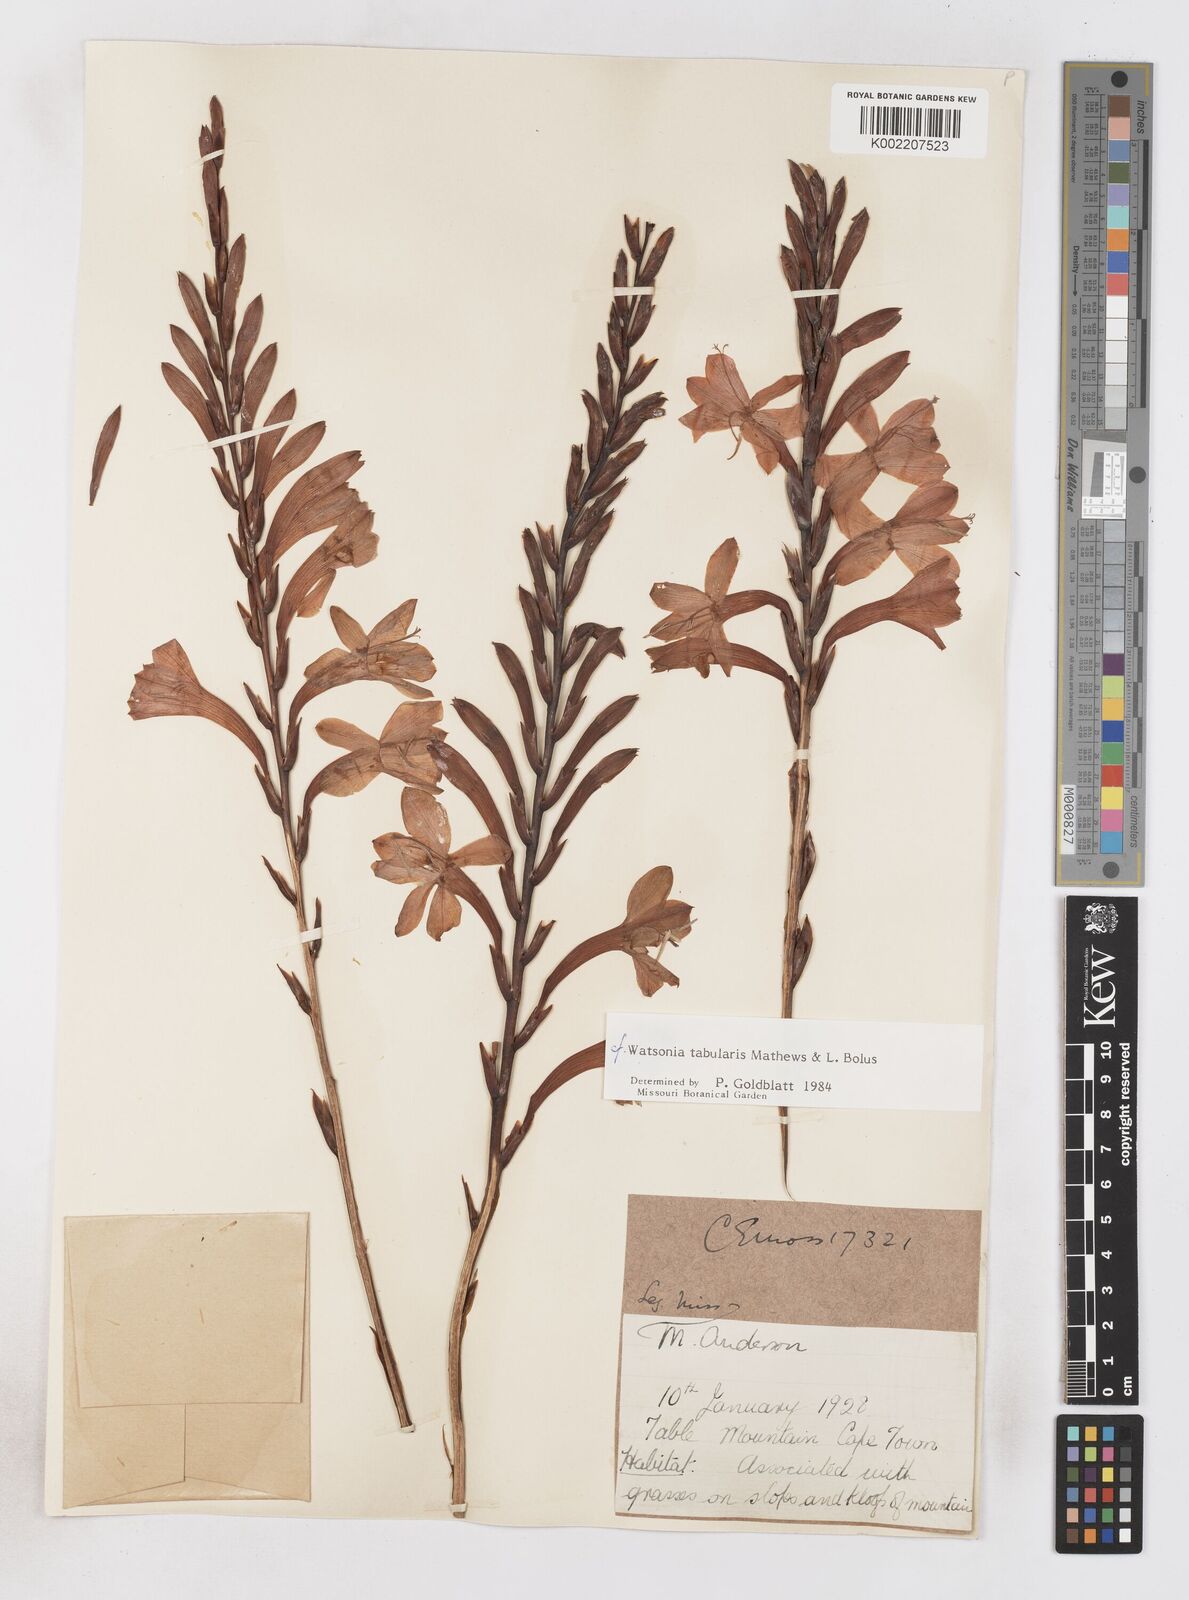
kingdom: Plantae
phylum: Tracheophyta
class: Liliopsida
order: Asparagales
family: Iridaceae
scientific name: Iridaceae
